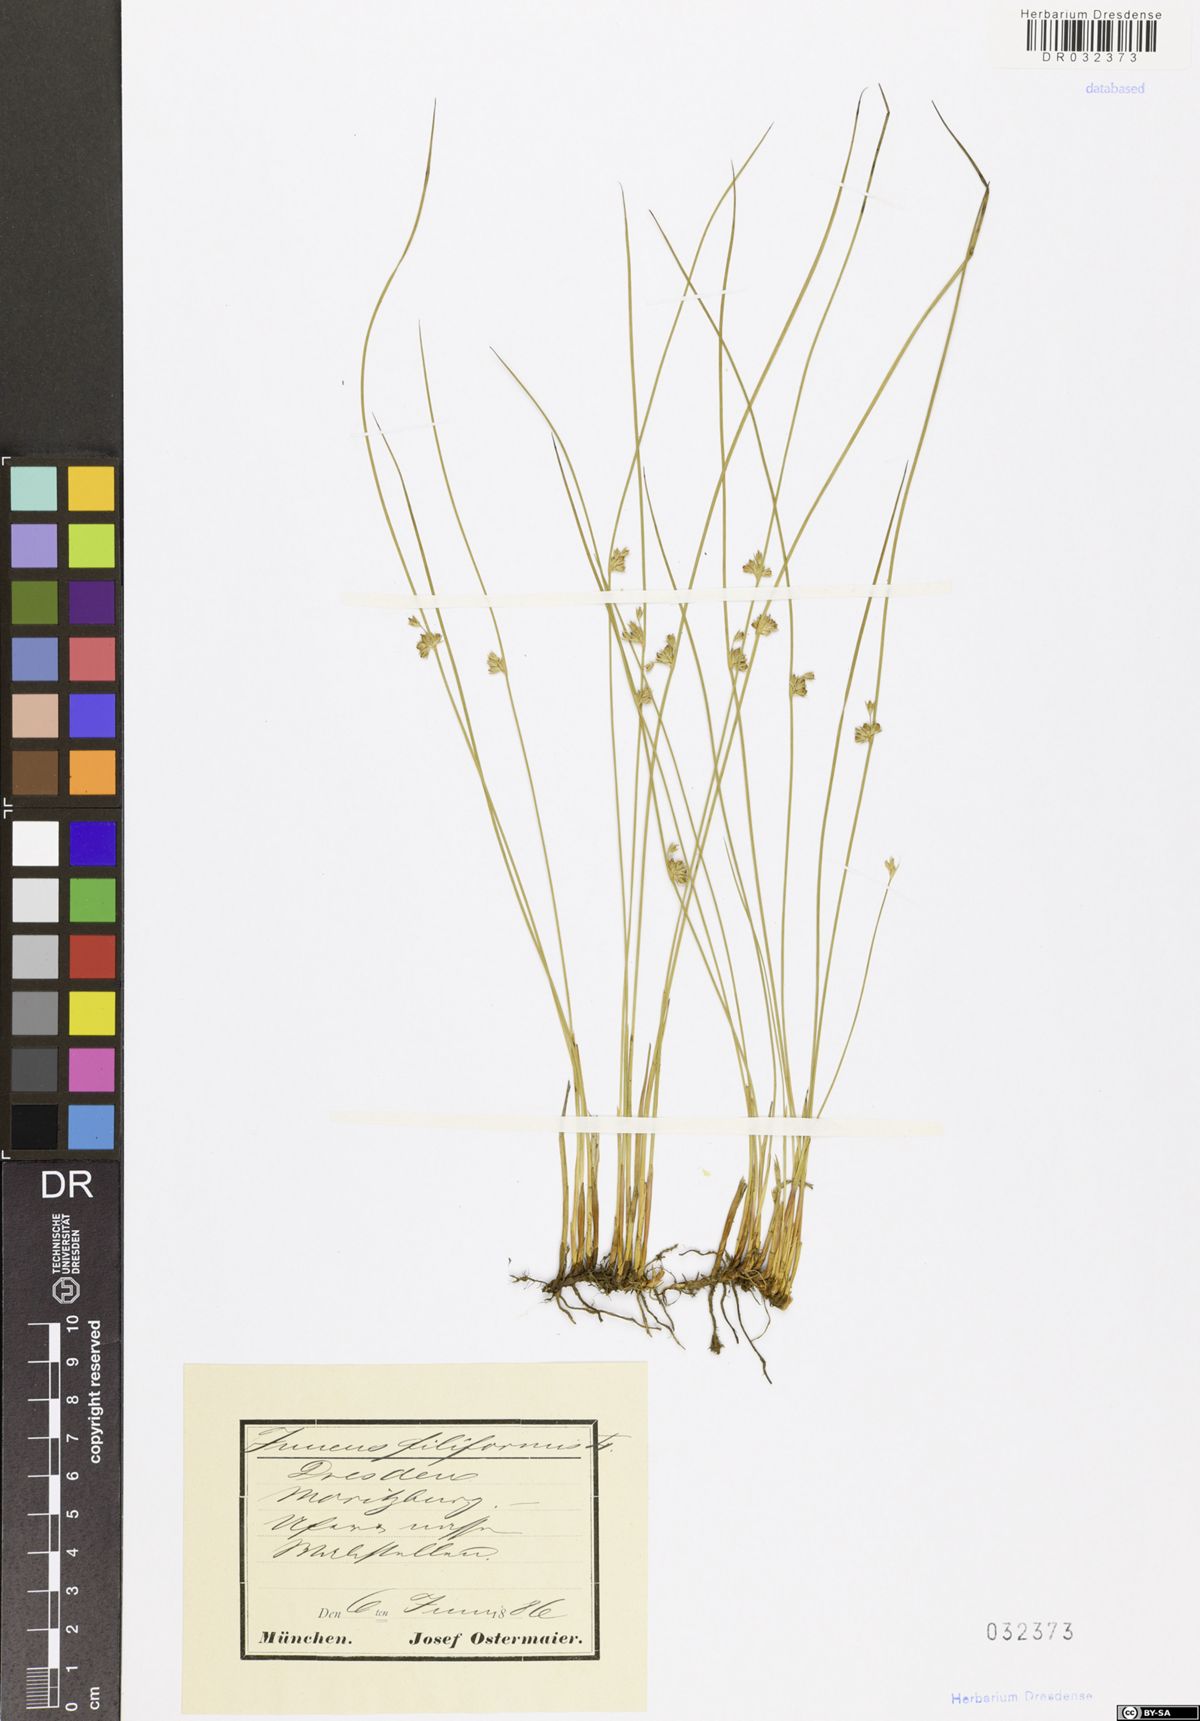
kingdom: Plantae
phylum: Tracheophyta
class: Liliopsida
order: Poales
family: Juncaceae
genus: Juncus
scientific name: Juncus inflexus
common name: Hard rush
